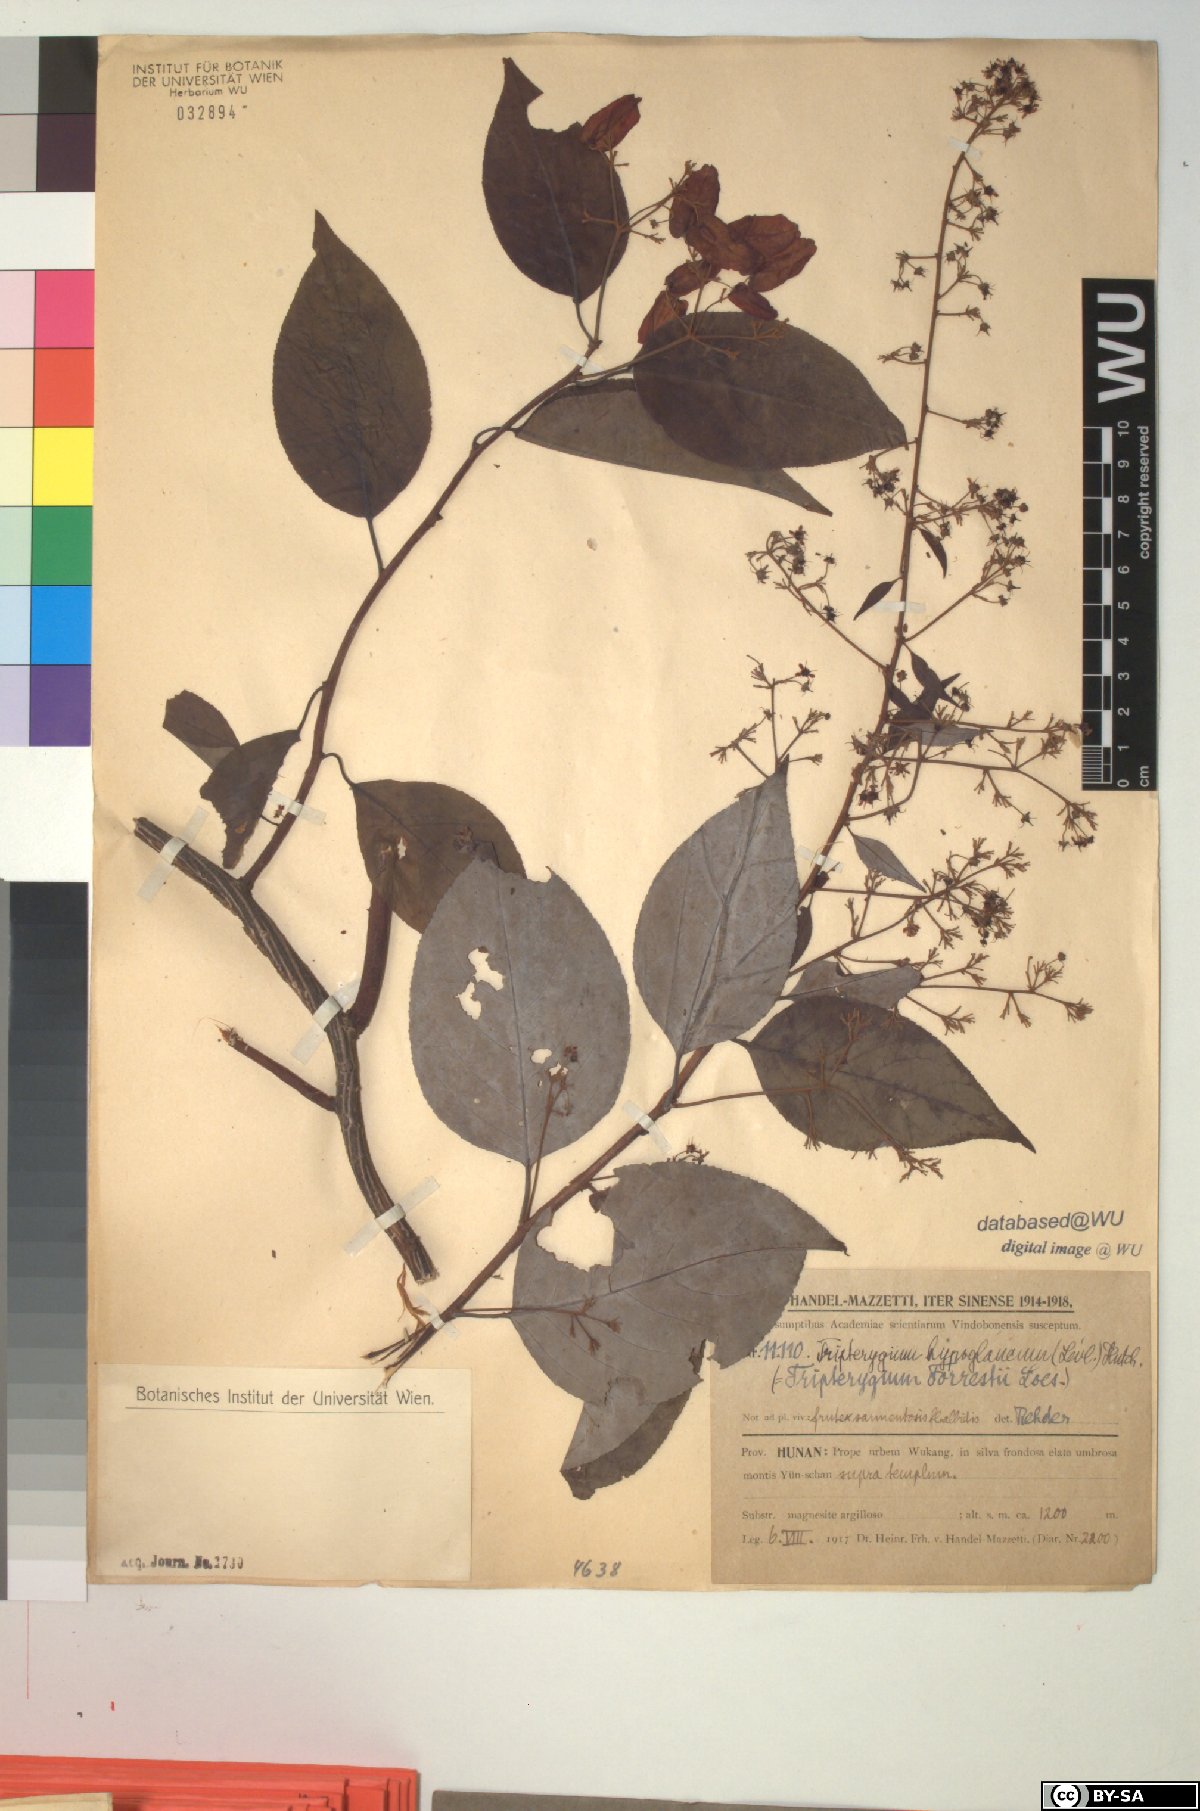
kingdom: Plantae
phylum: Tracheophyta
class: Magnoliopsida
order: Celastrales
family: Celastraceae
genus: Tripterygium
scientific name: Tripterygium wilfordii
